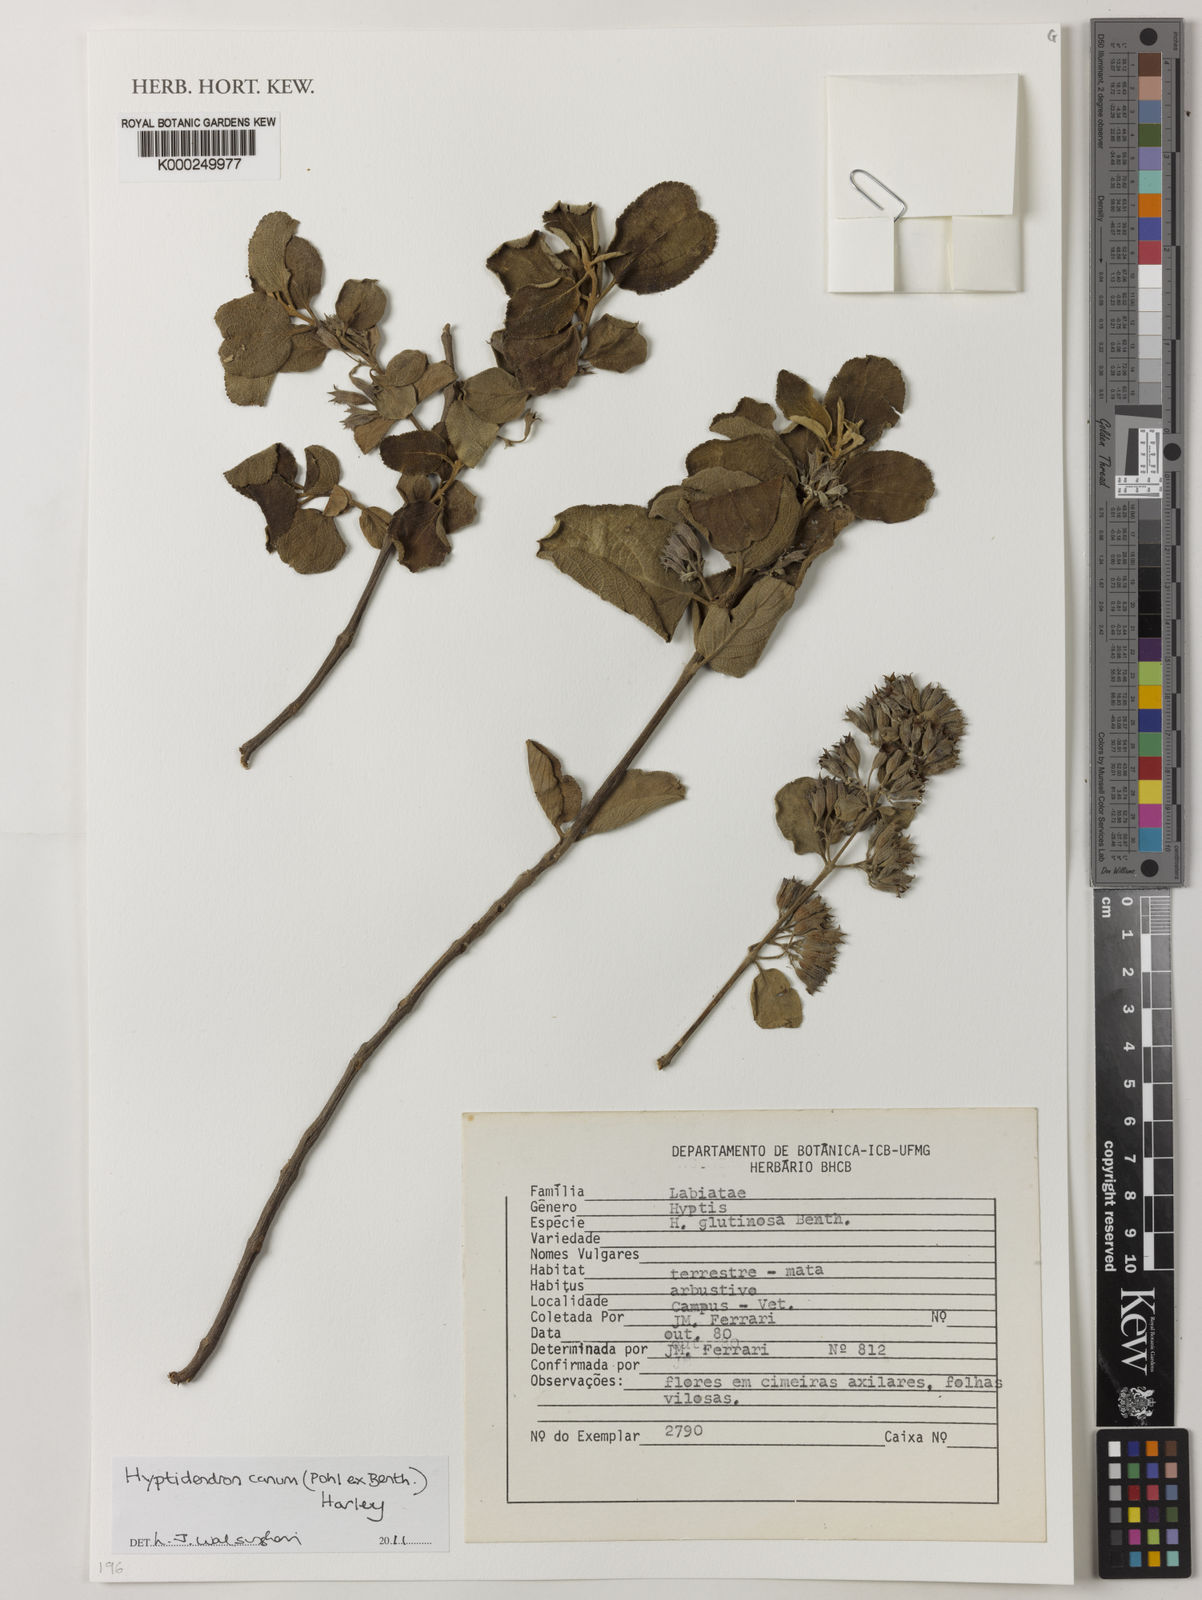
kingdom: Plantae
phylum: Tracheophyta
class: Magnoliopsida
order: Lamiales
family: Lamiaceae
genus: Hyptidendron
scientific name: Hyptidendron canum
